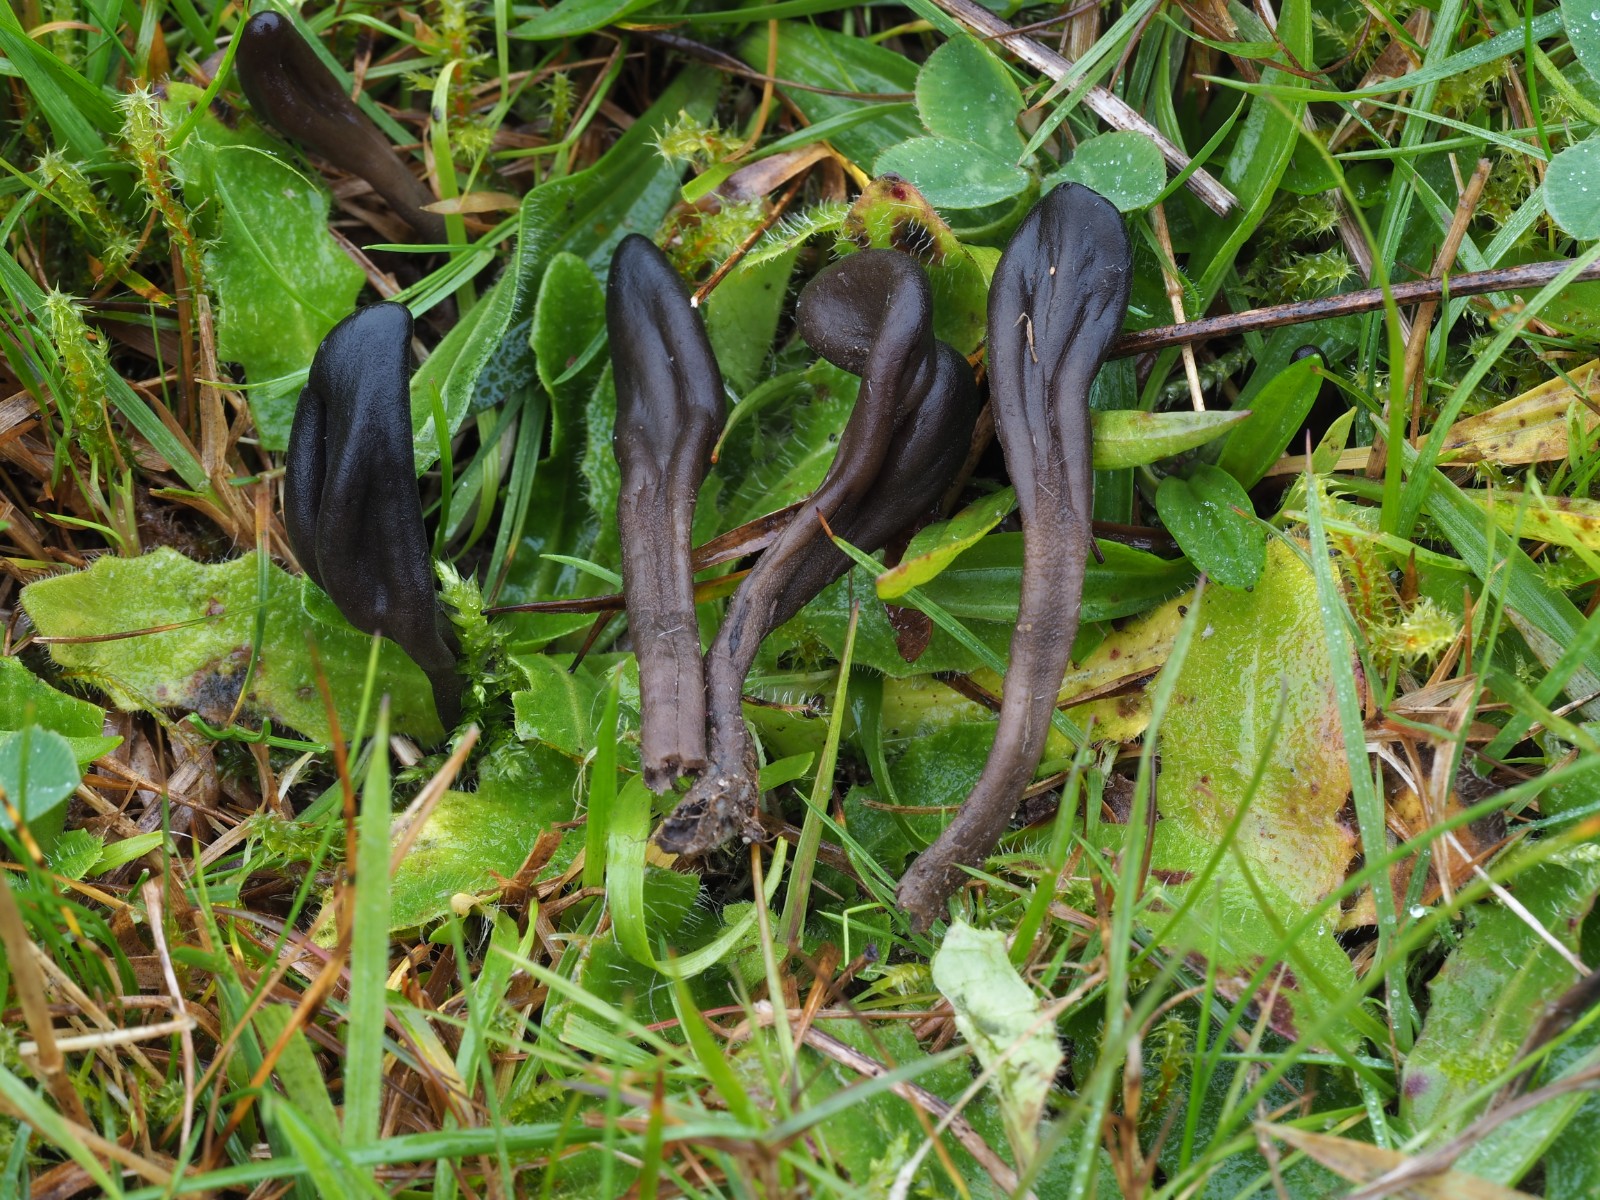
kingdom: Fungi
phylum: Ascomycota
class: Geoglossomycetes
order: Geoglossales
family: Geoglossaceae
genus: Hemileucoglossum
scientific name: Hemileucoglossum elongatum
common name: småsporet jordtunge
